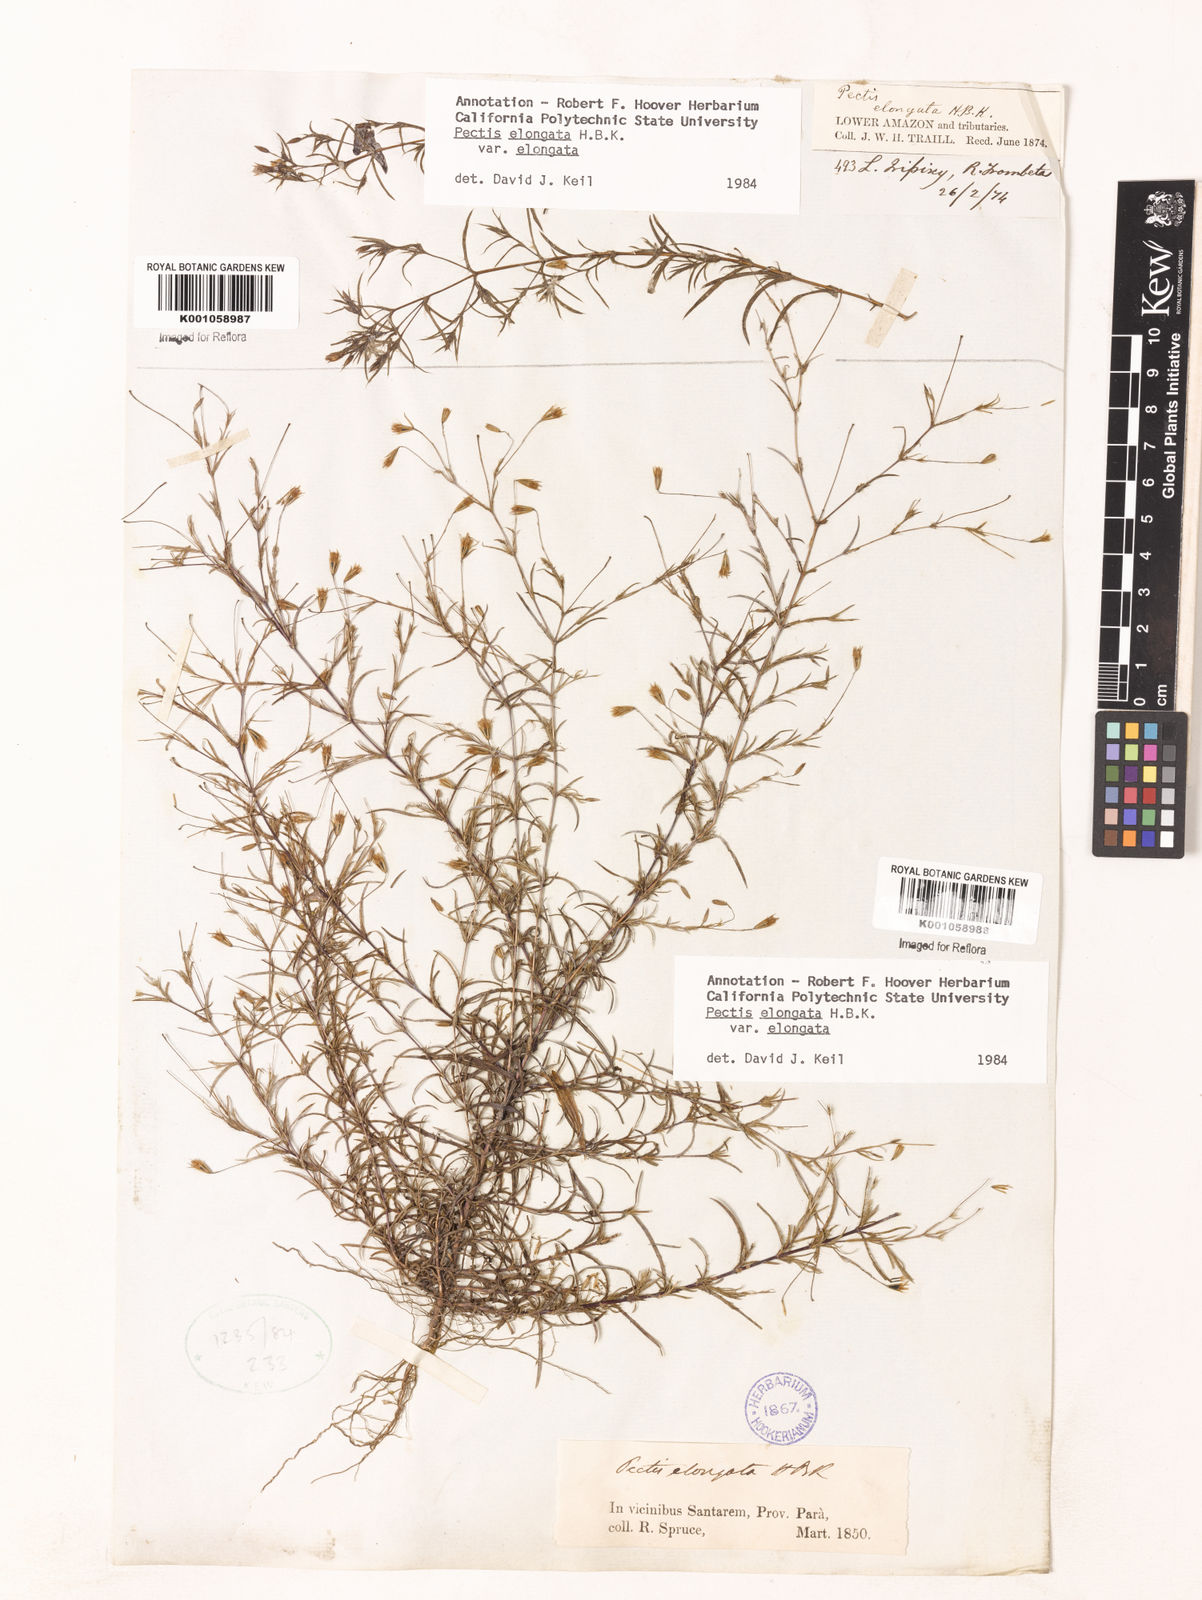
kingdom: Plantae
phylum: Tracheophyta
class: Magnoliopsida
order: Asterales
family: Asteraceae
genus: Pectis
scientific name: Pectis elongata
